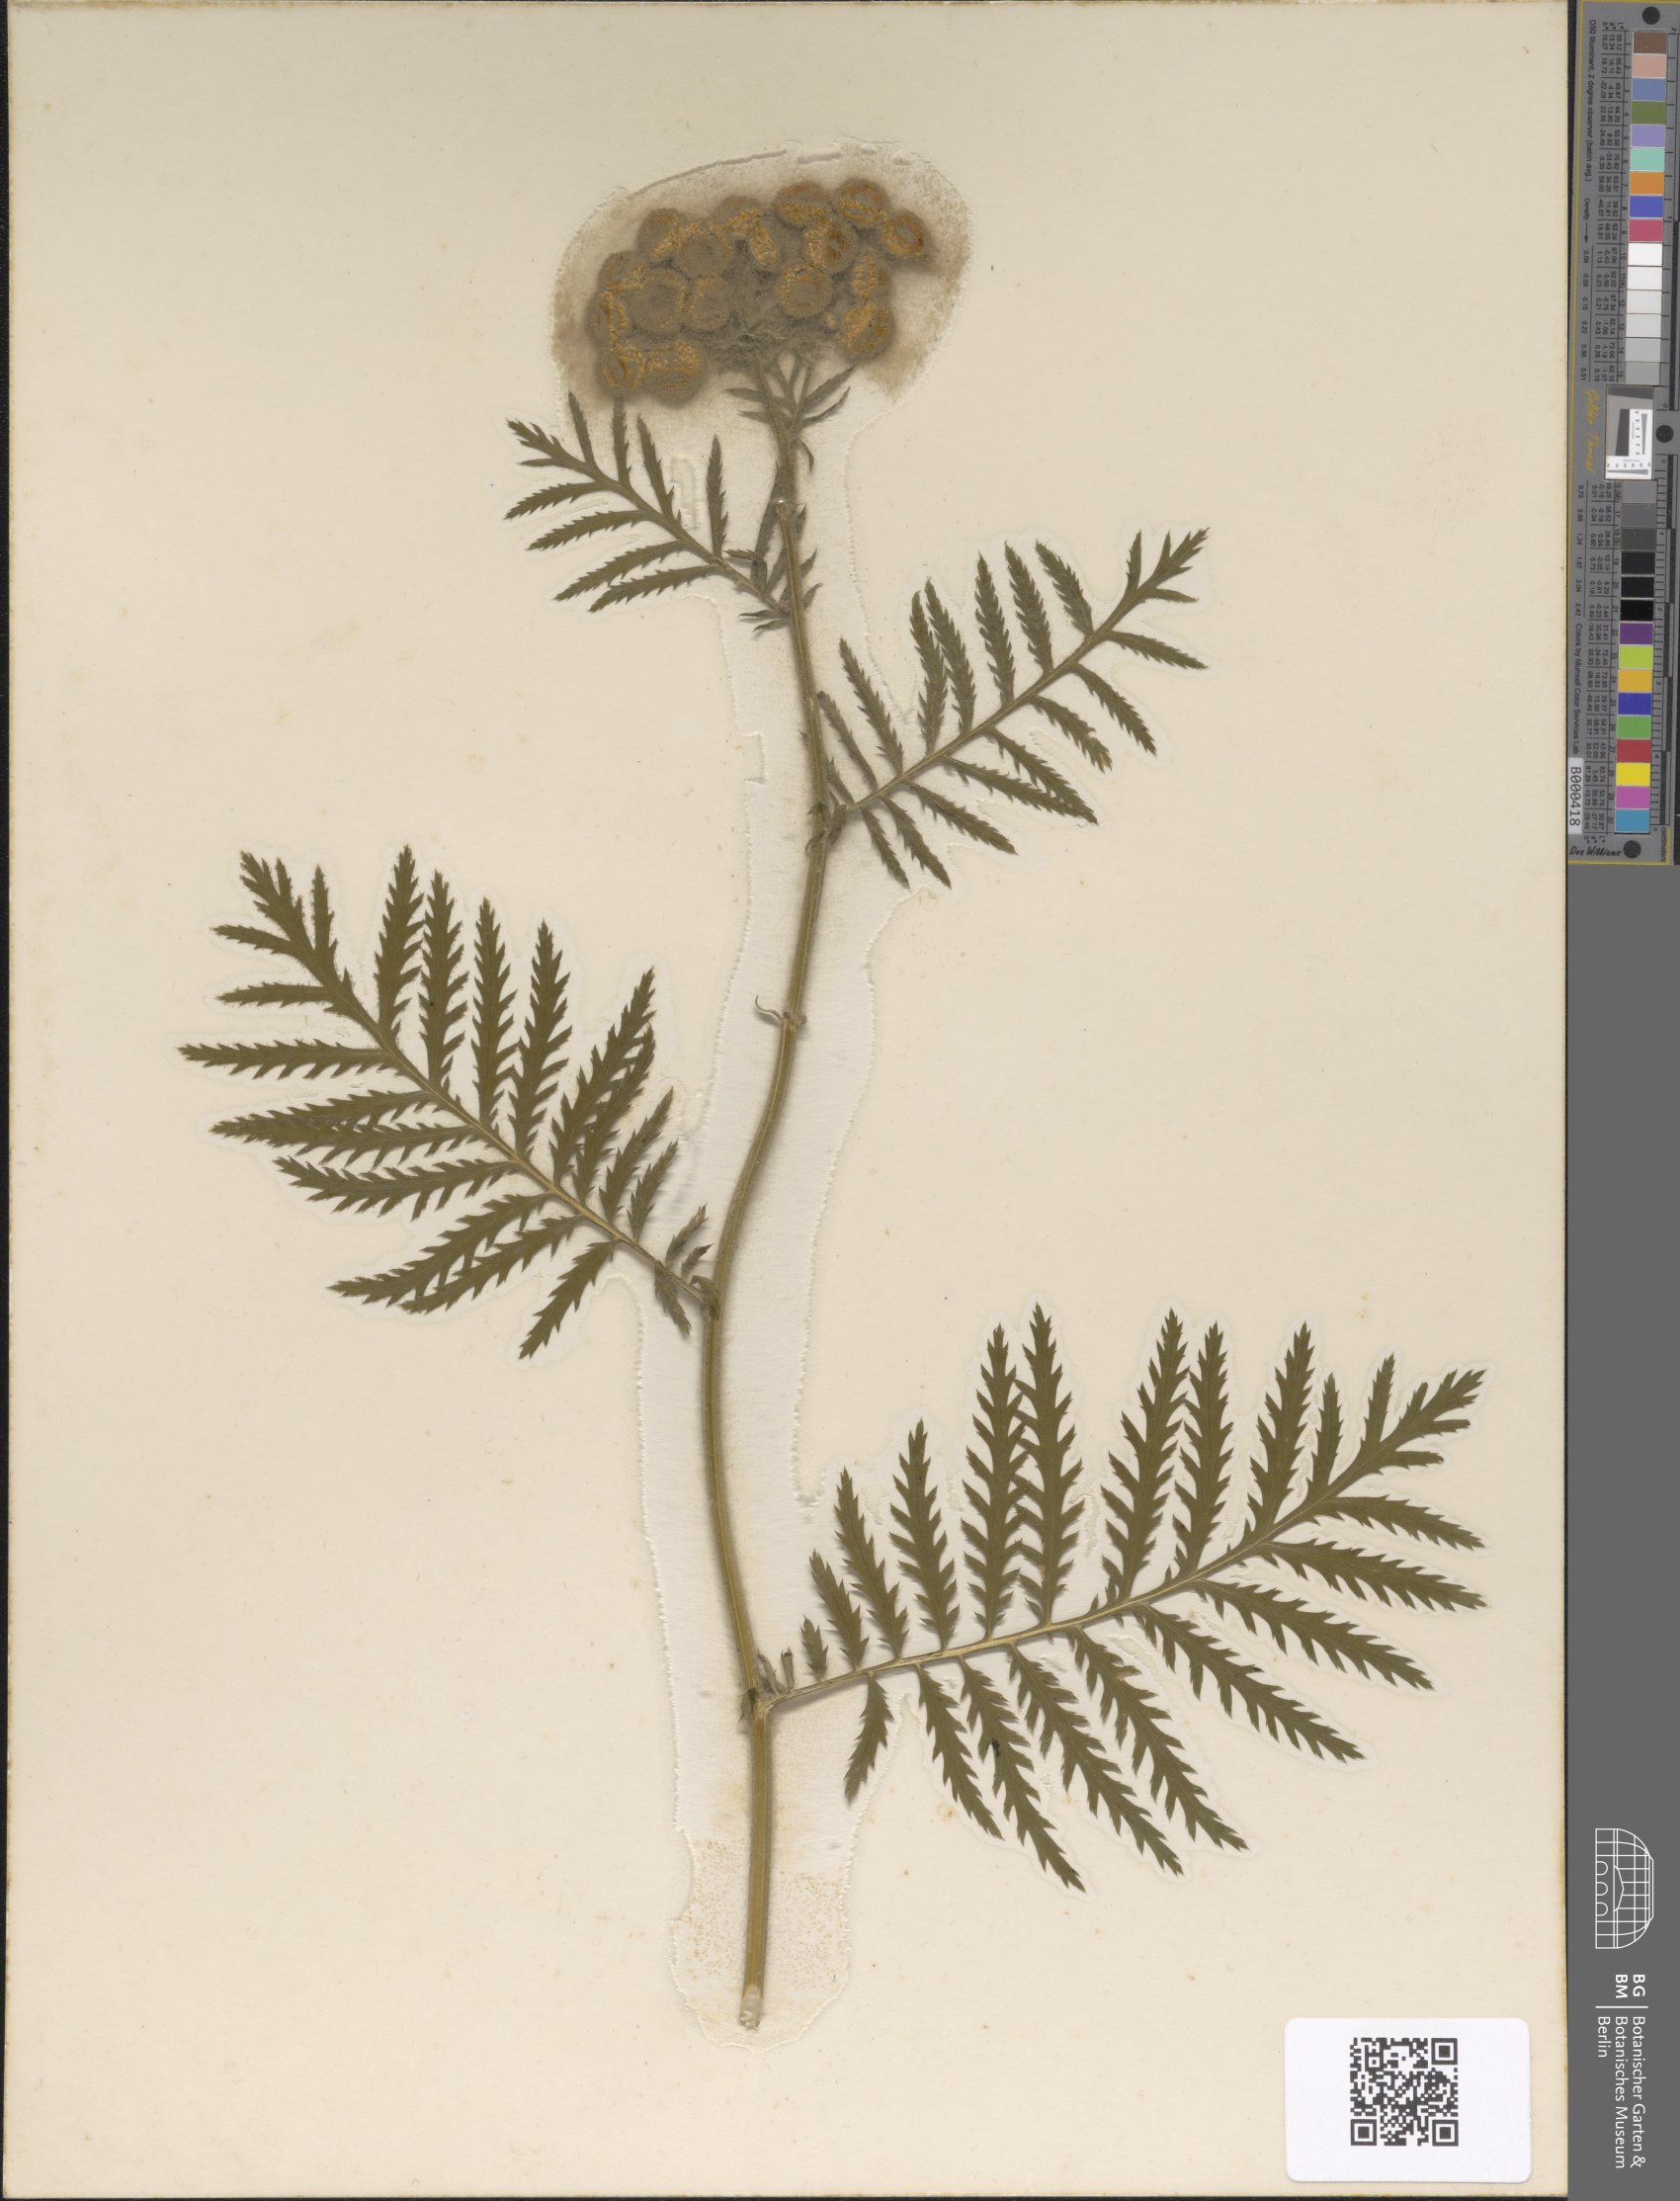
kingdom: Plantae
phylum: Tracheophyta
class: Magnoliopsida
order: Asterales
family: Asteraceae
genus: Tanacetum
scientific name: Tanacetum vulgare
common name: Common tansy
